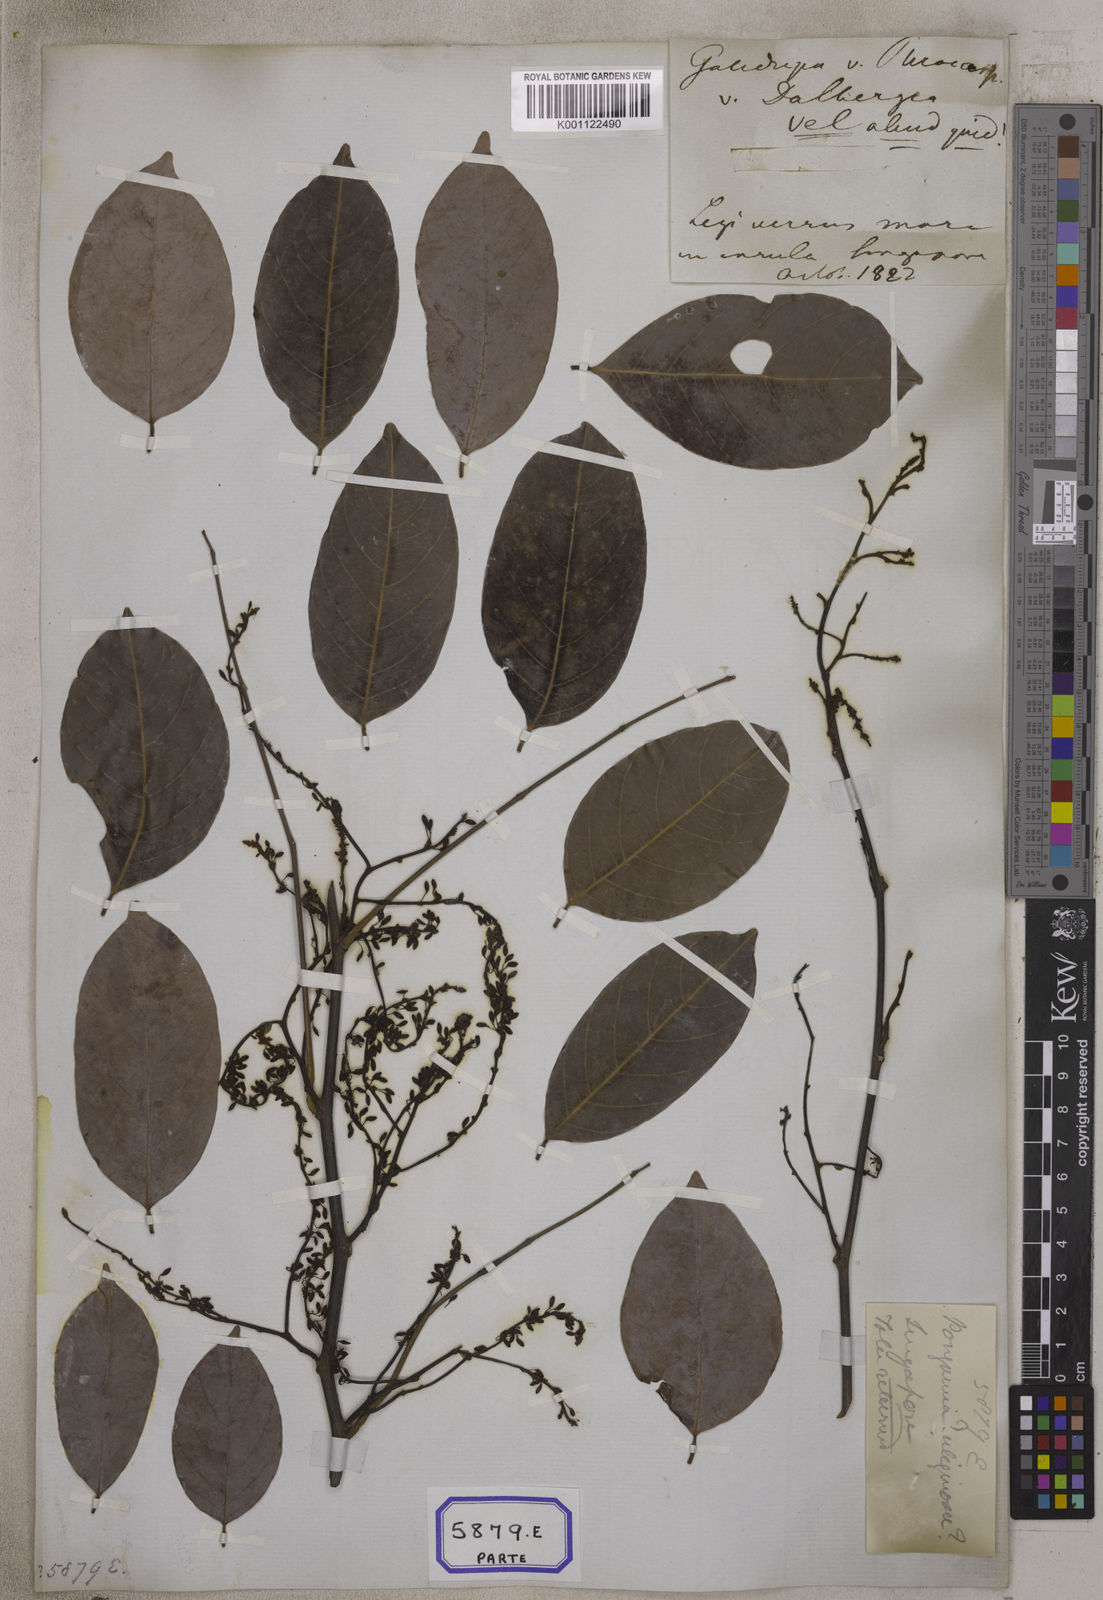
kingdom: Plantae
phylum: Tracheophyta
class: Magnoliopsida
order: Fabales
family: Fabaceae
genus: Derris
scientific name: Derris trifoliata
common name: Three-leaf derris
